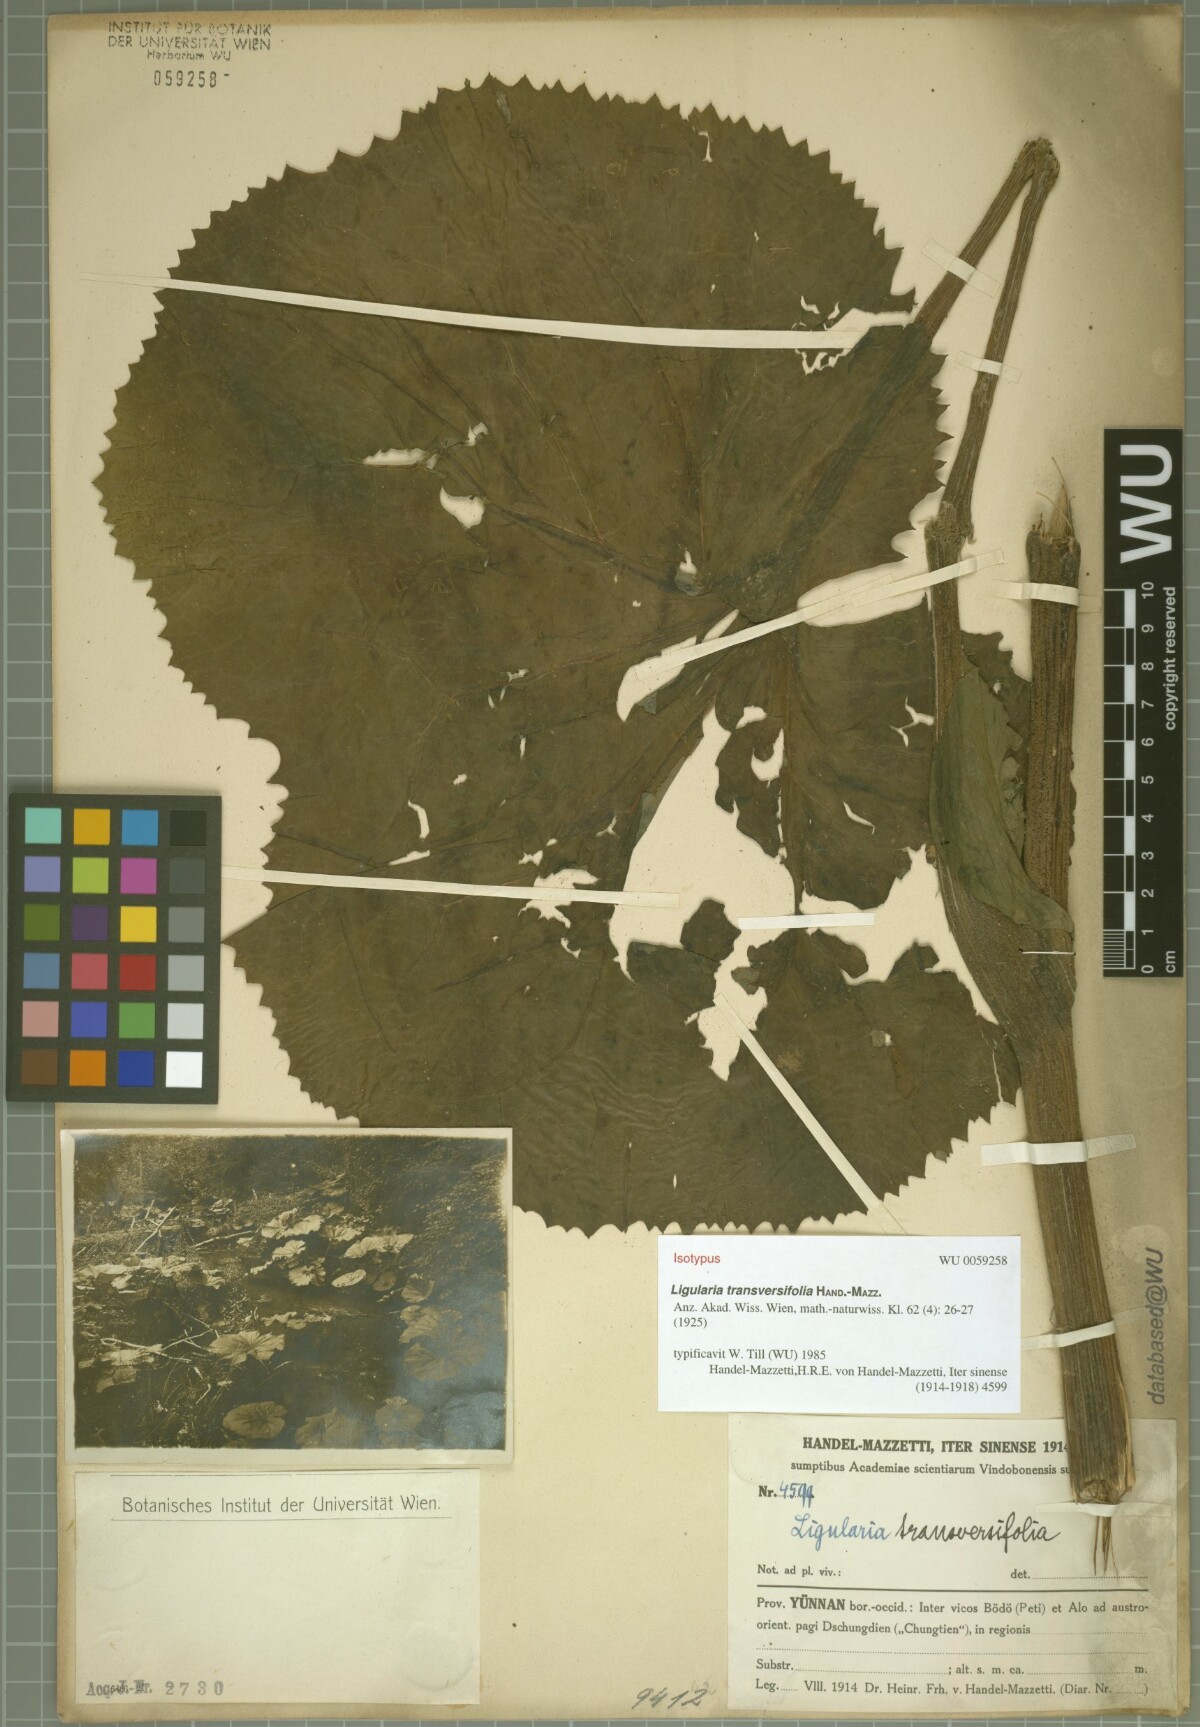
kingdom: Plantae
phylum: Tracheophyta
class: Magnoliopsida
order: Asterales
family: Asteraceae
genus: Ligularia
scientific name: Ligularia transversifolia
